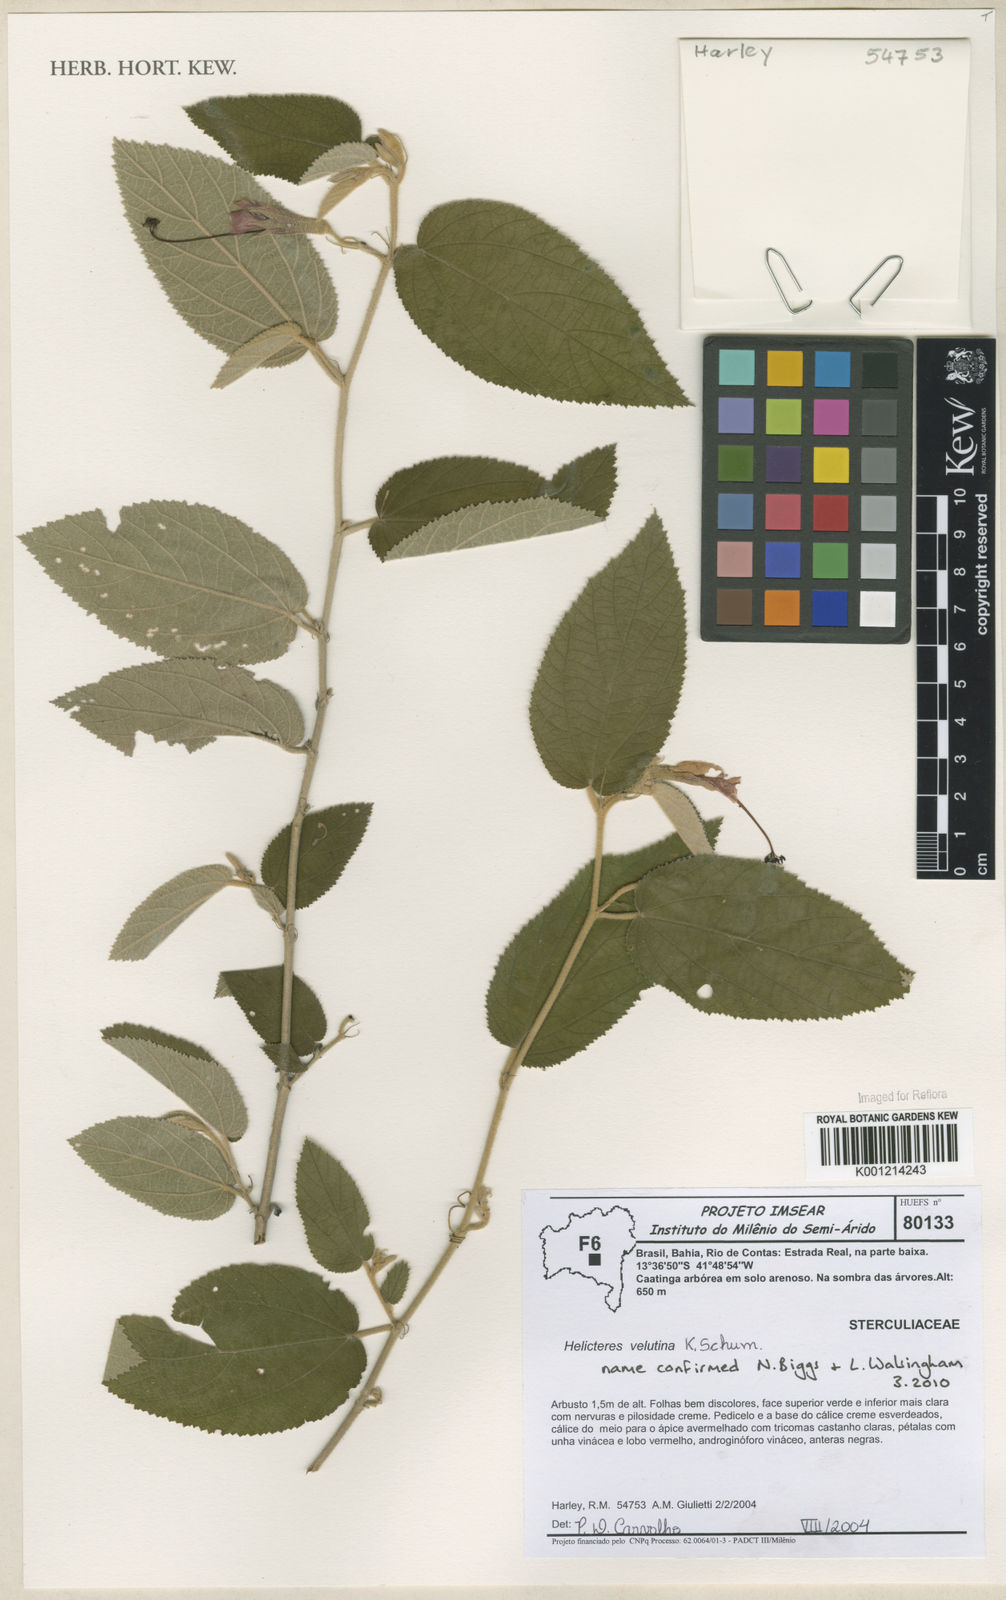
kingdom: Plantae
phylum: Tracheophyta
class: Magnoliopsida
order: Malvales
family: Malvaceae
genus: Helicteres
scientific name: Helicteres velutina
